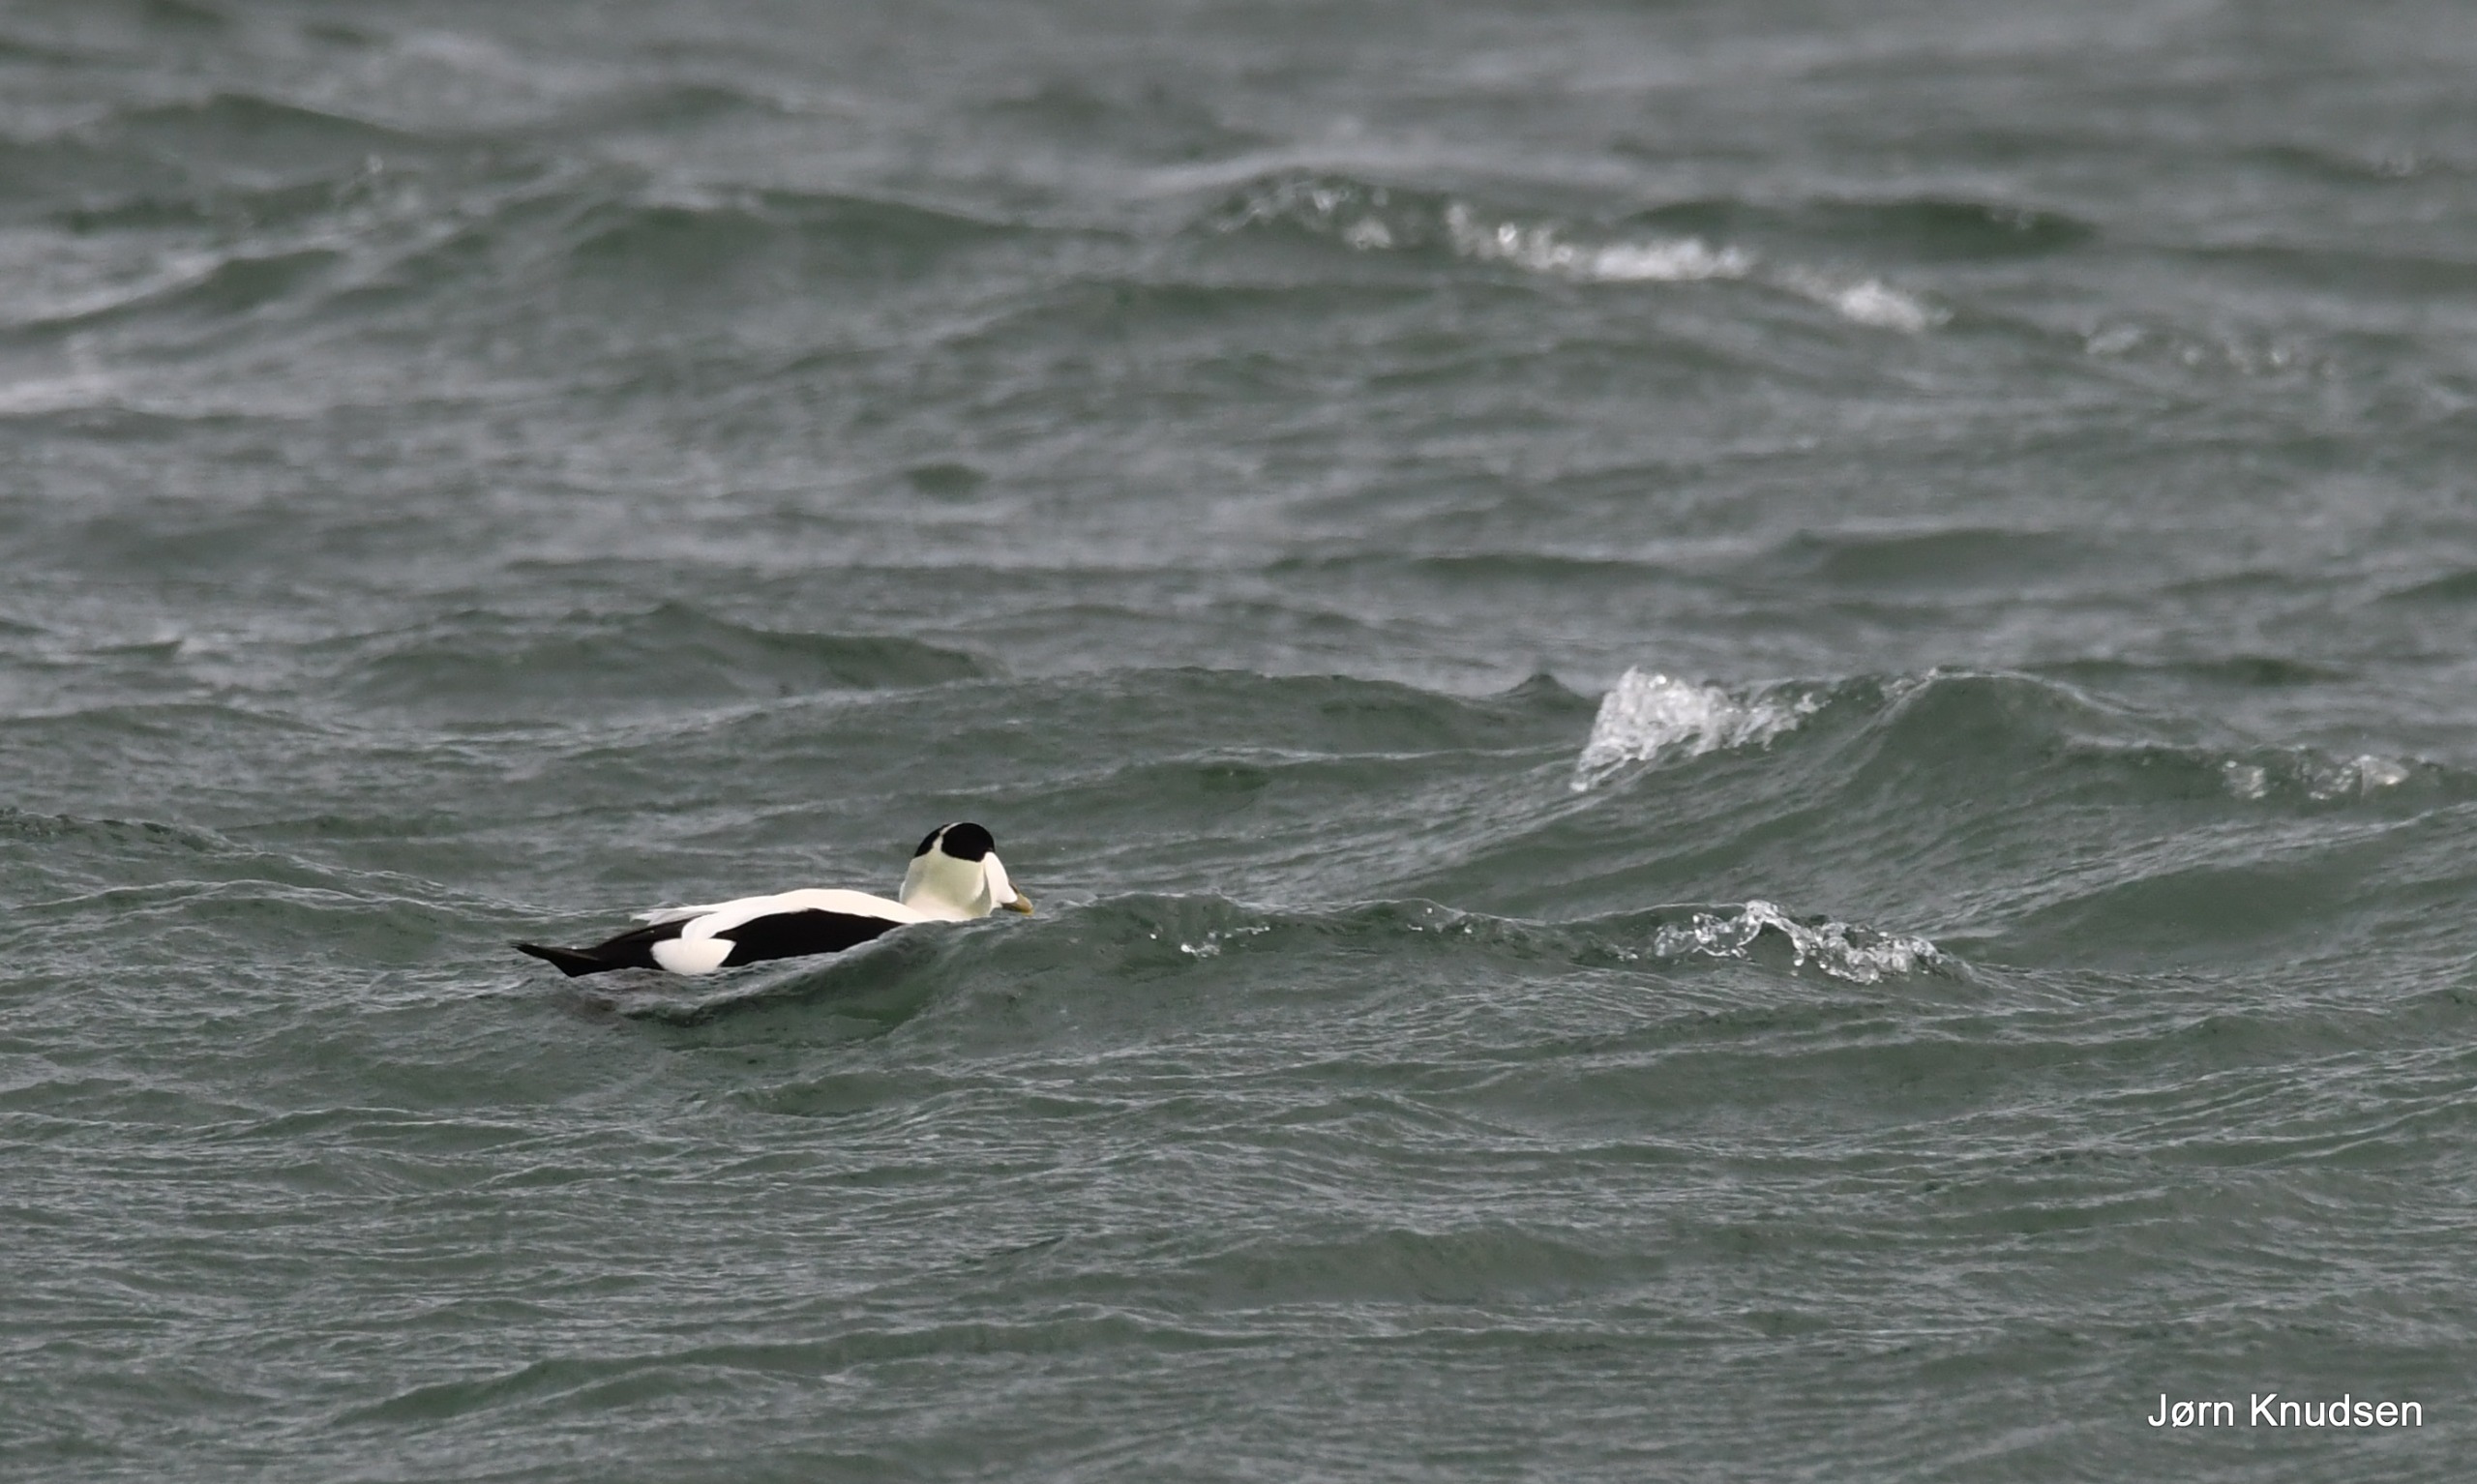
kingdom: Animalia
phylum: Chordata
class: Aves
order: Anseriformes
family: Anatidae
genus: Somateria
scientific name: Somateria mollissima
